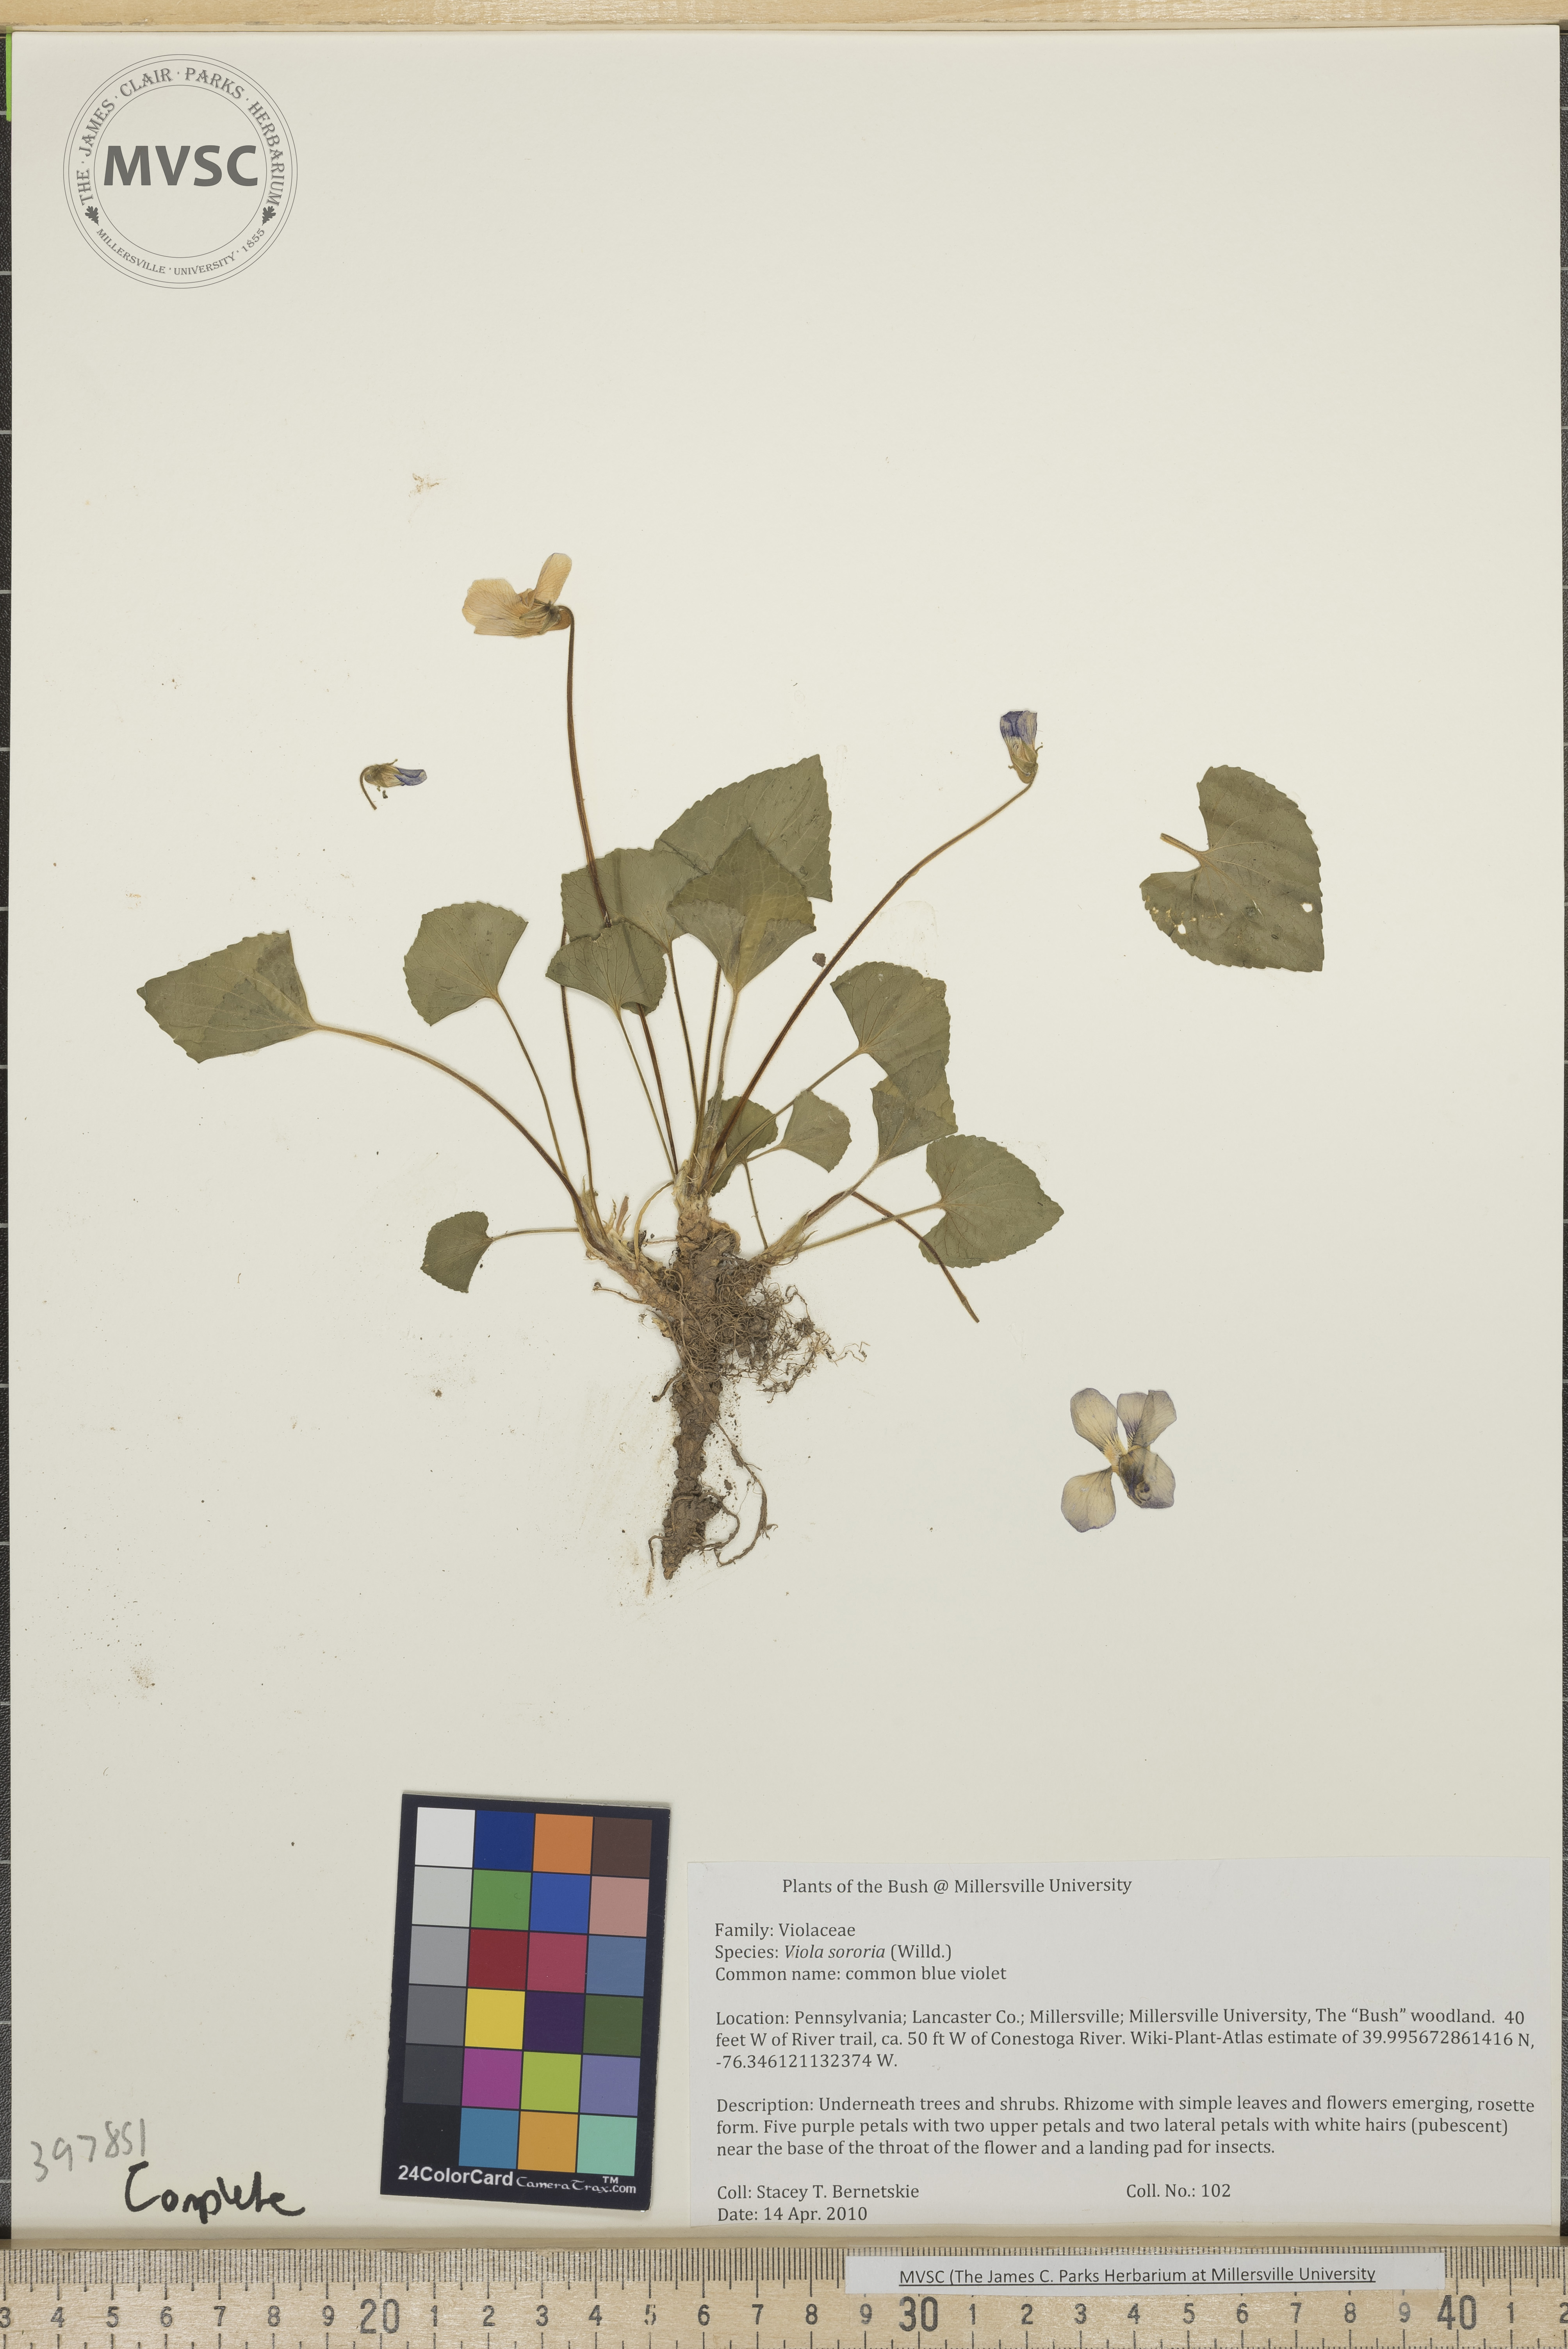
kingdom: Plantae
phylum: Tracheophyta
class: Magnoliopsida
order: Malpighiales
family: Violaceae
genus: Viola
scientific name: Viola sororia
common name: Common blue violet
